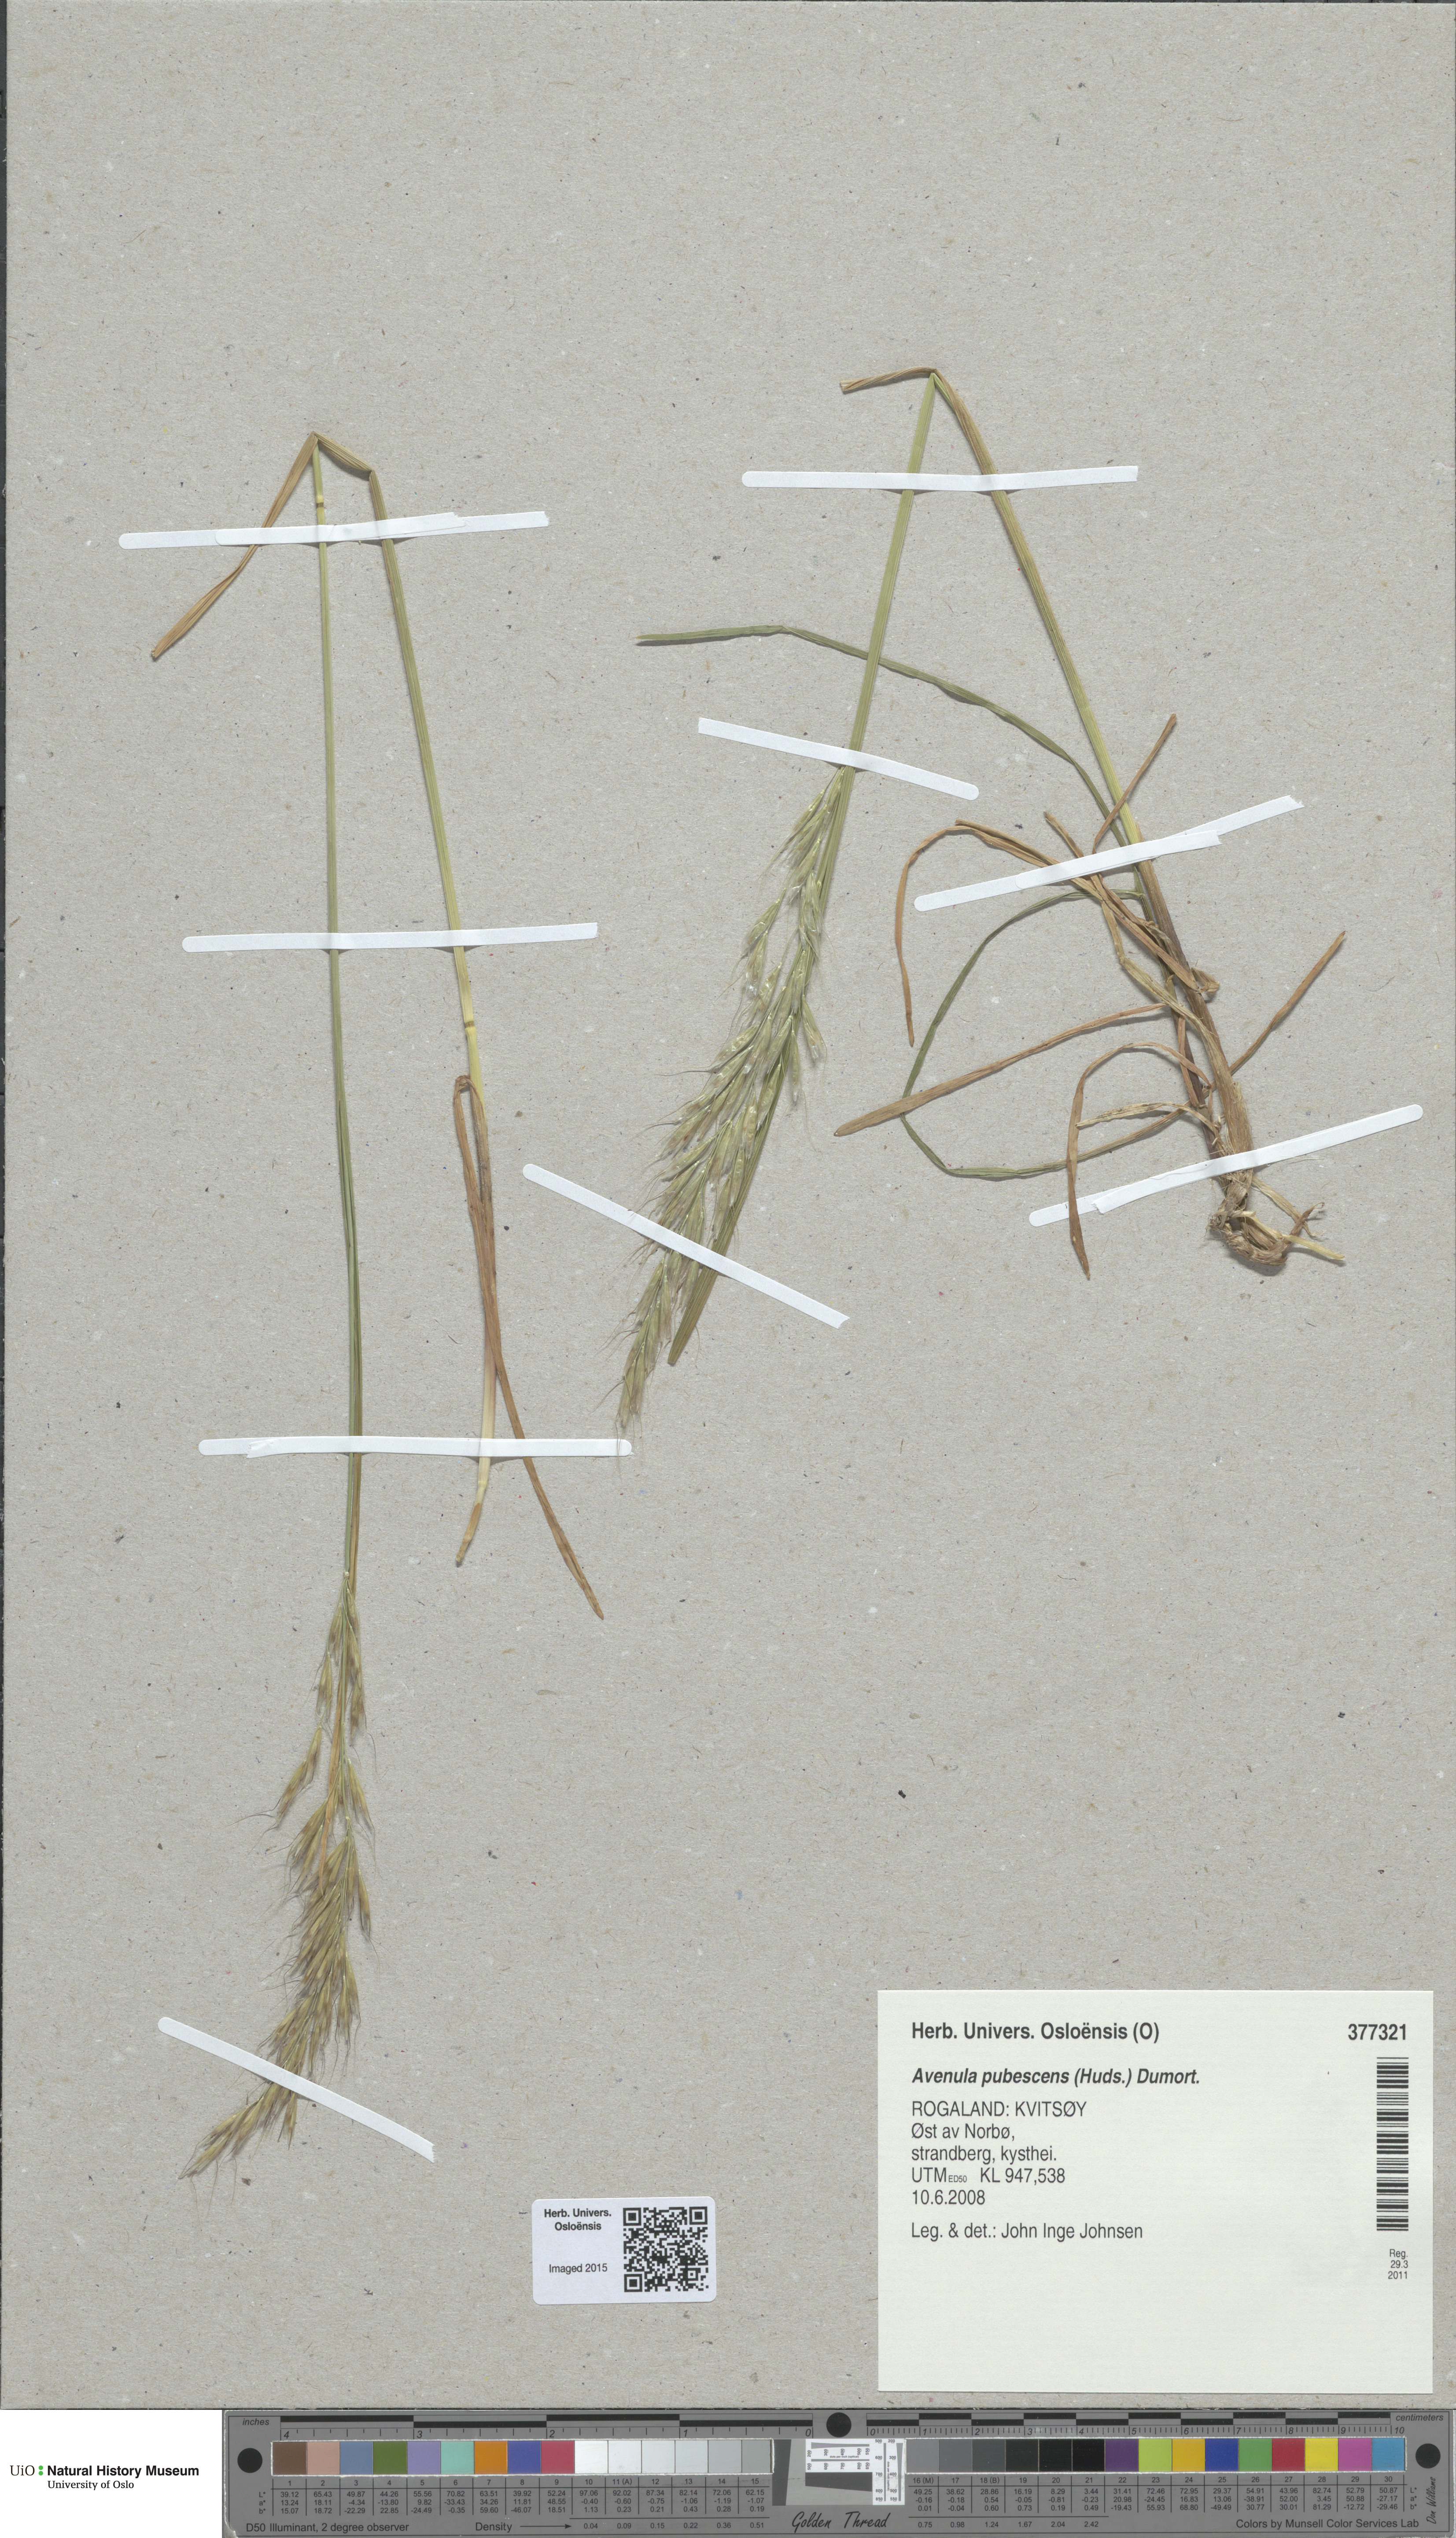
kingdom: Plantae
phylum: Tracheophyta
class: Liliopsida
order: Poales
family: Poaceae
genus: Avenula
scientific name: Avenula pubescens
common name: Downy alpine oatgrass
